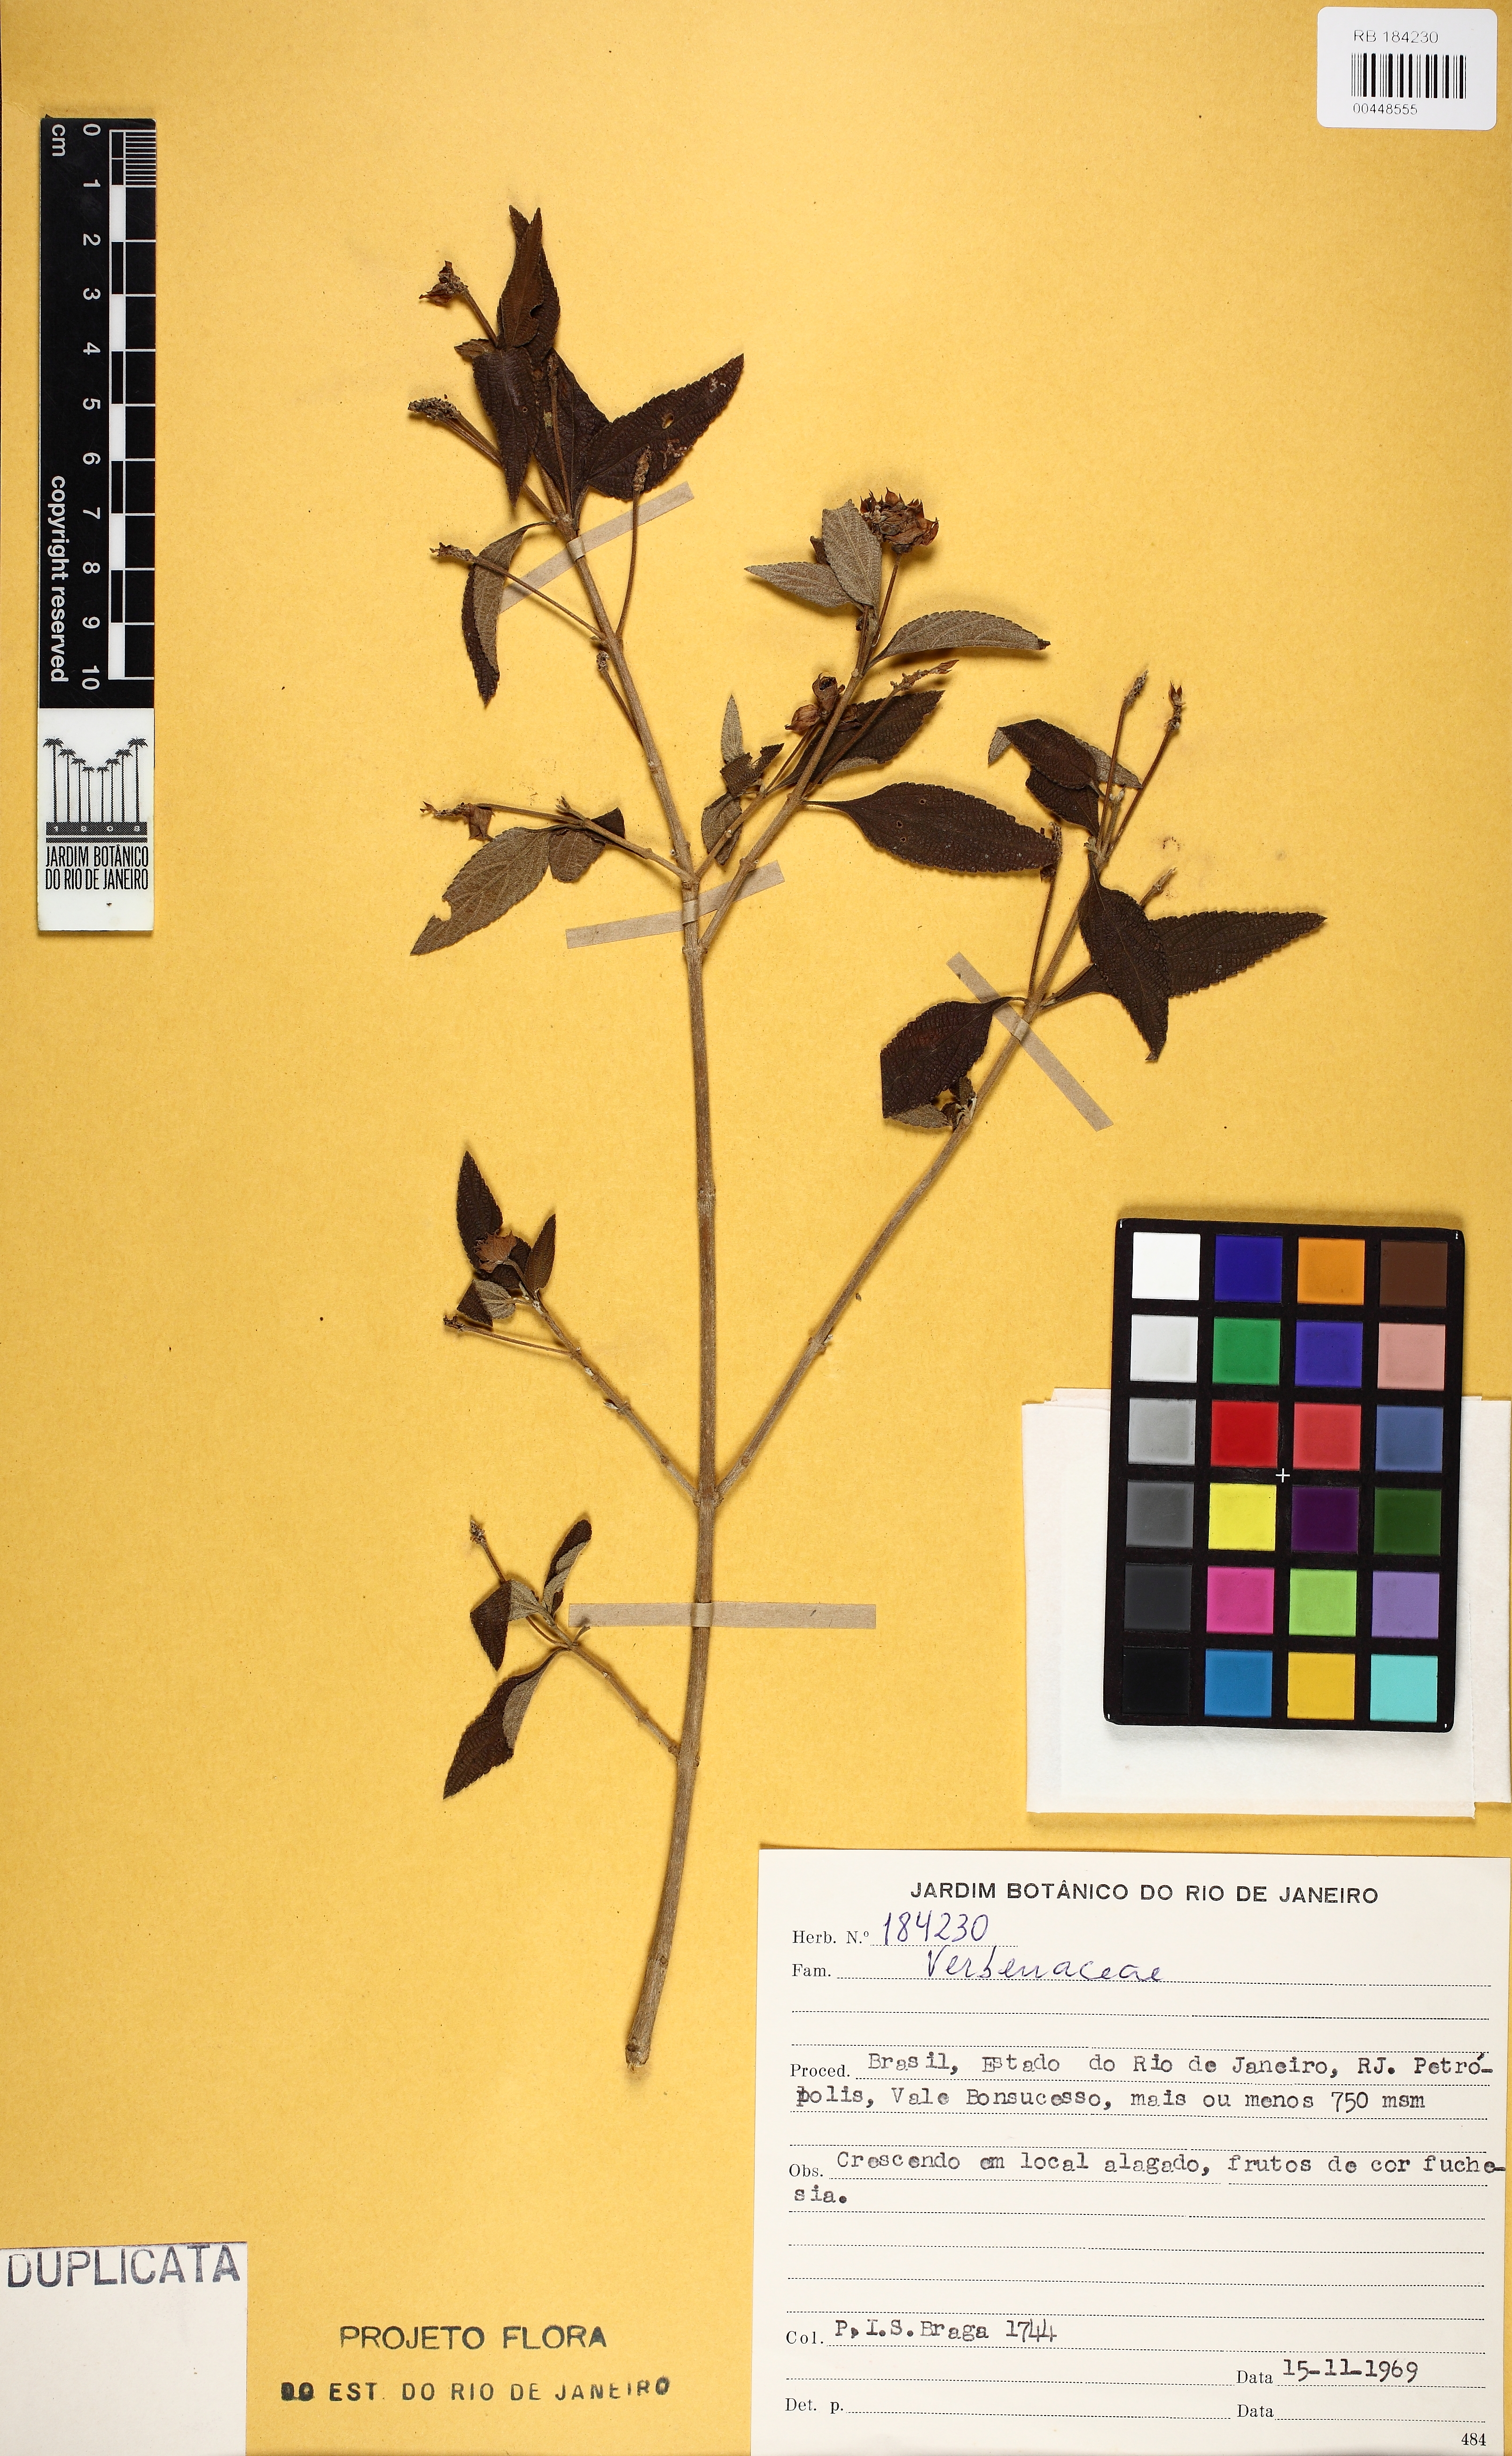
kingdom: Plantae
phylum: Tracheophyta
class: Magnoliopsida
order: Lamiales
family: Verbenaceae
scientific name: Verbenaceae
